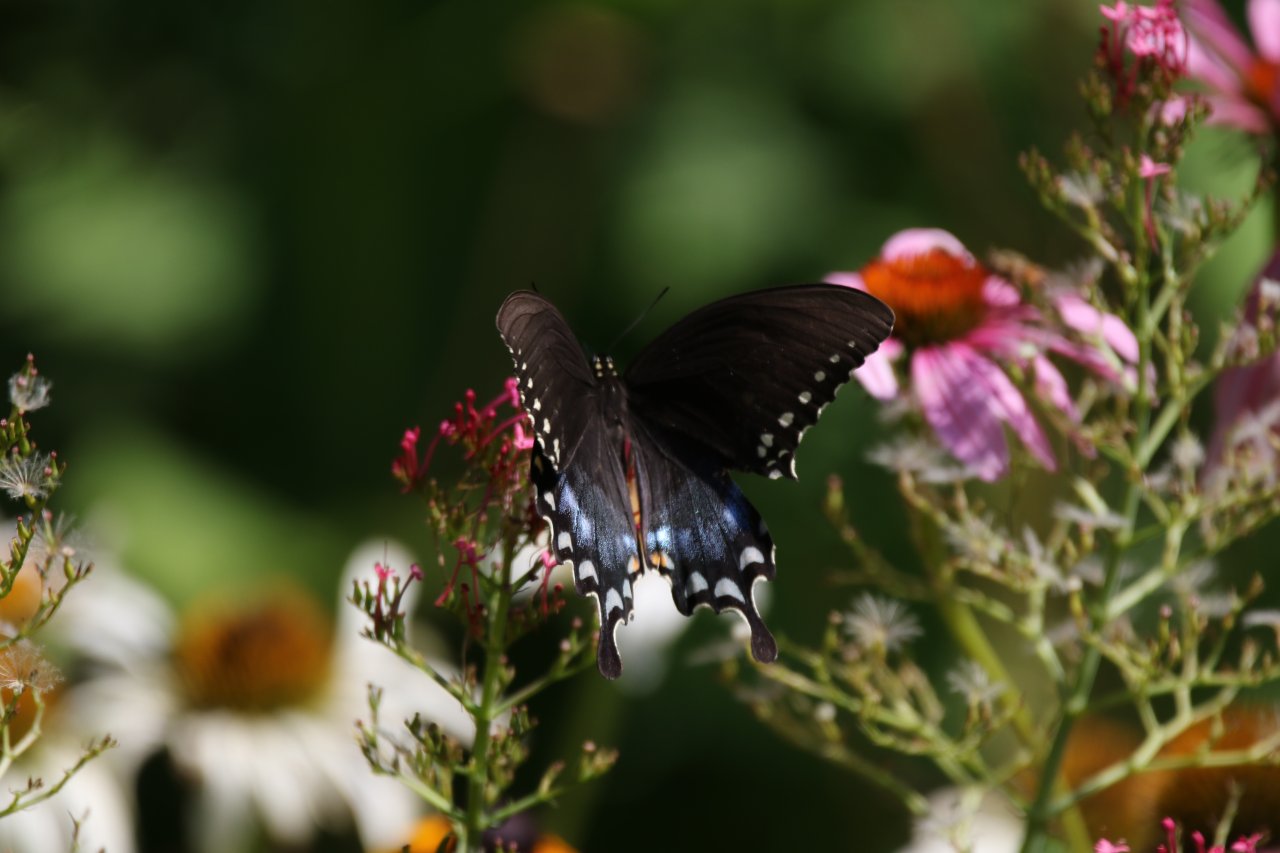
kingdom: Animalia
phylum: Arthropoda
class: Insecta
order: Lepidoptera
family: Papilionidae
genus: Pterourus
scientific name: Pterourus troilus
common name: Spicebush Swallowtail
